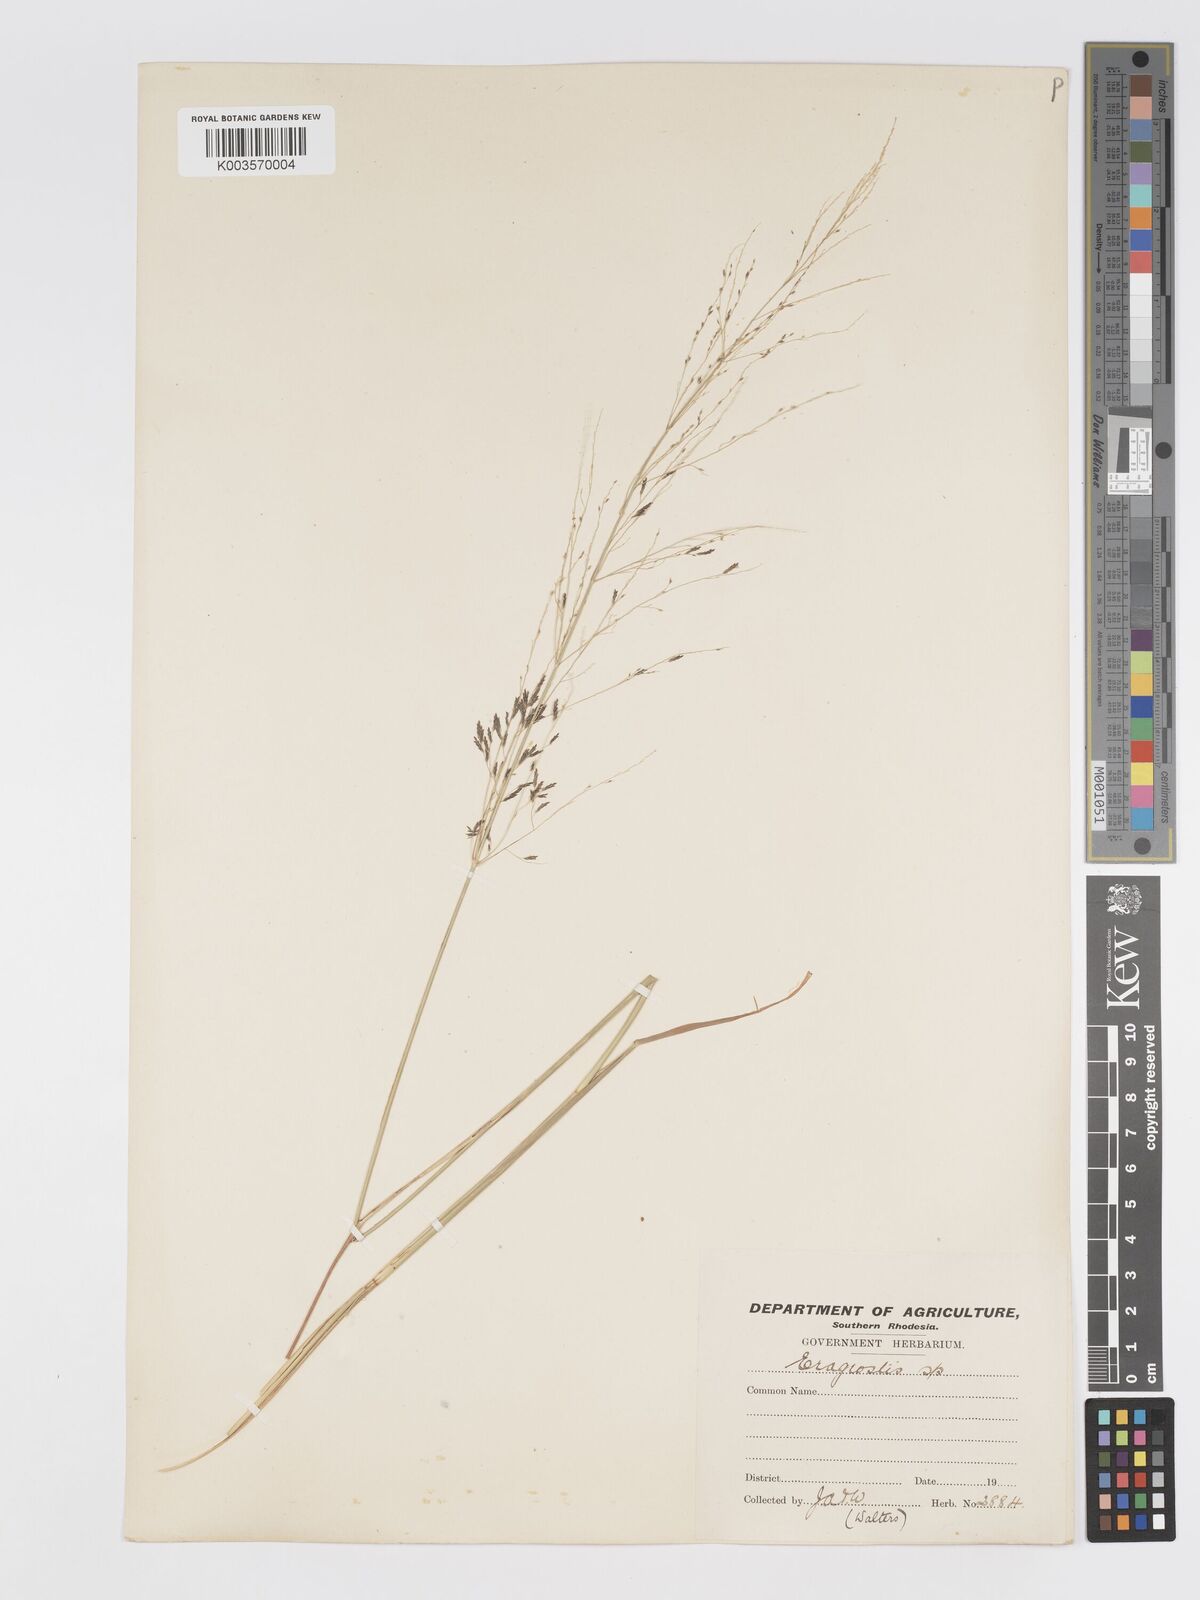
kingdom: Plantae
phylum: Tracheophyta
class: Liliopsida
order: Poales
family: Poaceae
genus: Eragrostis
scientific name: Eragrostis rotifer
